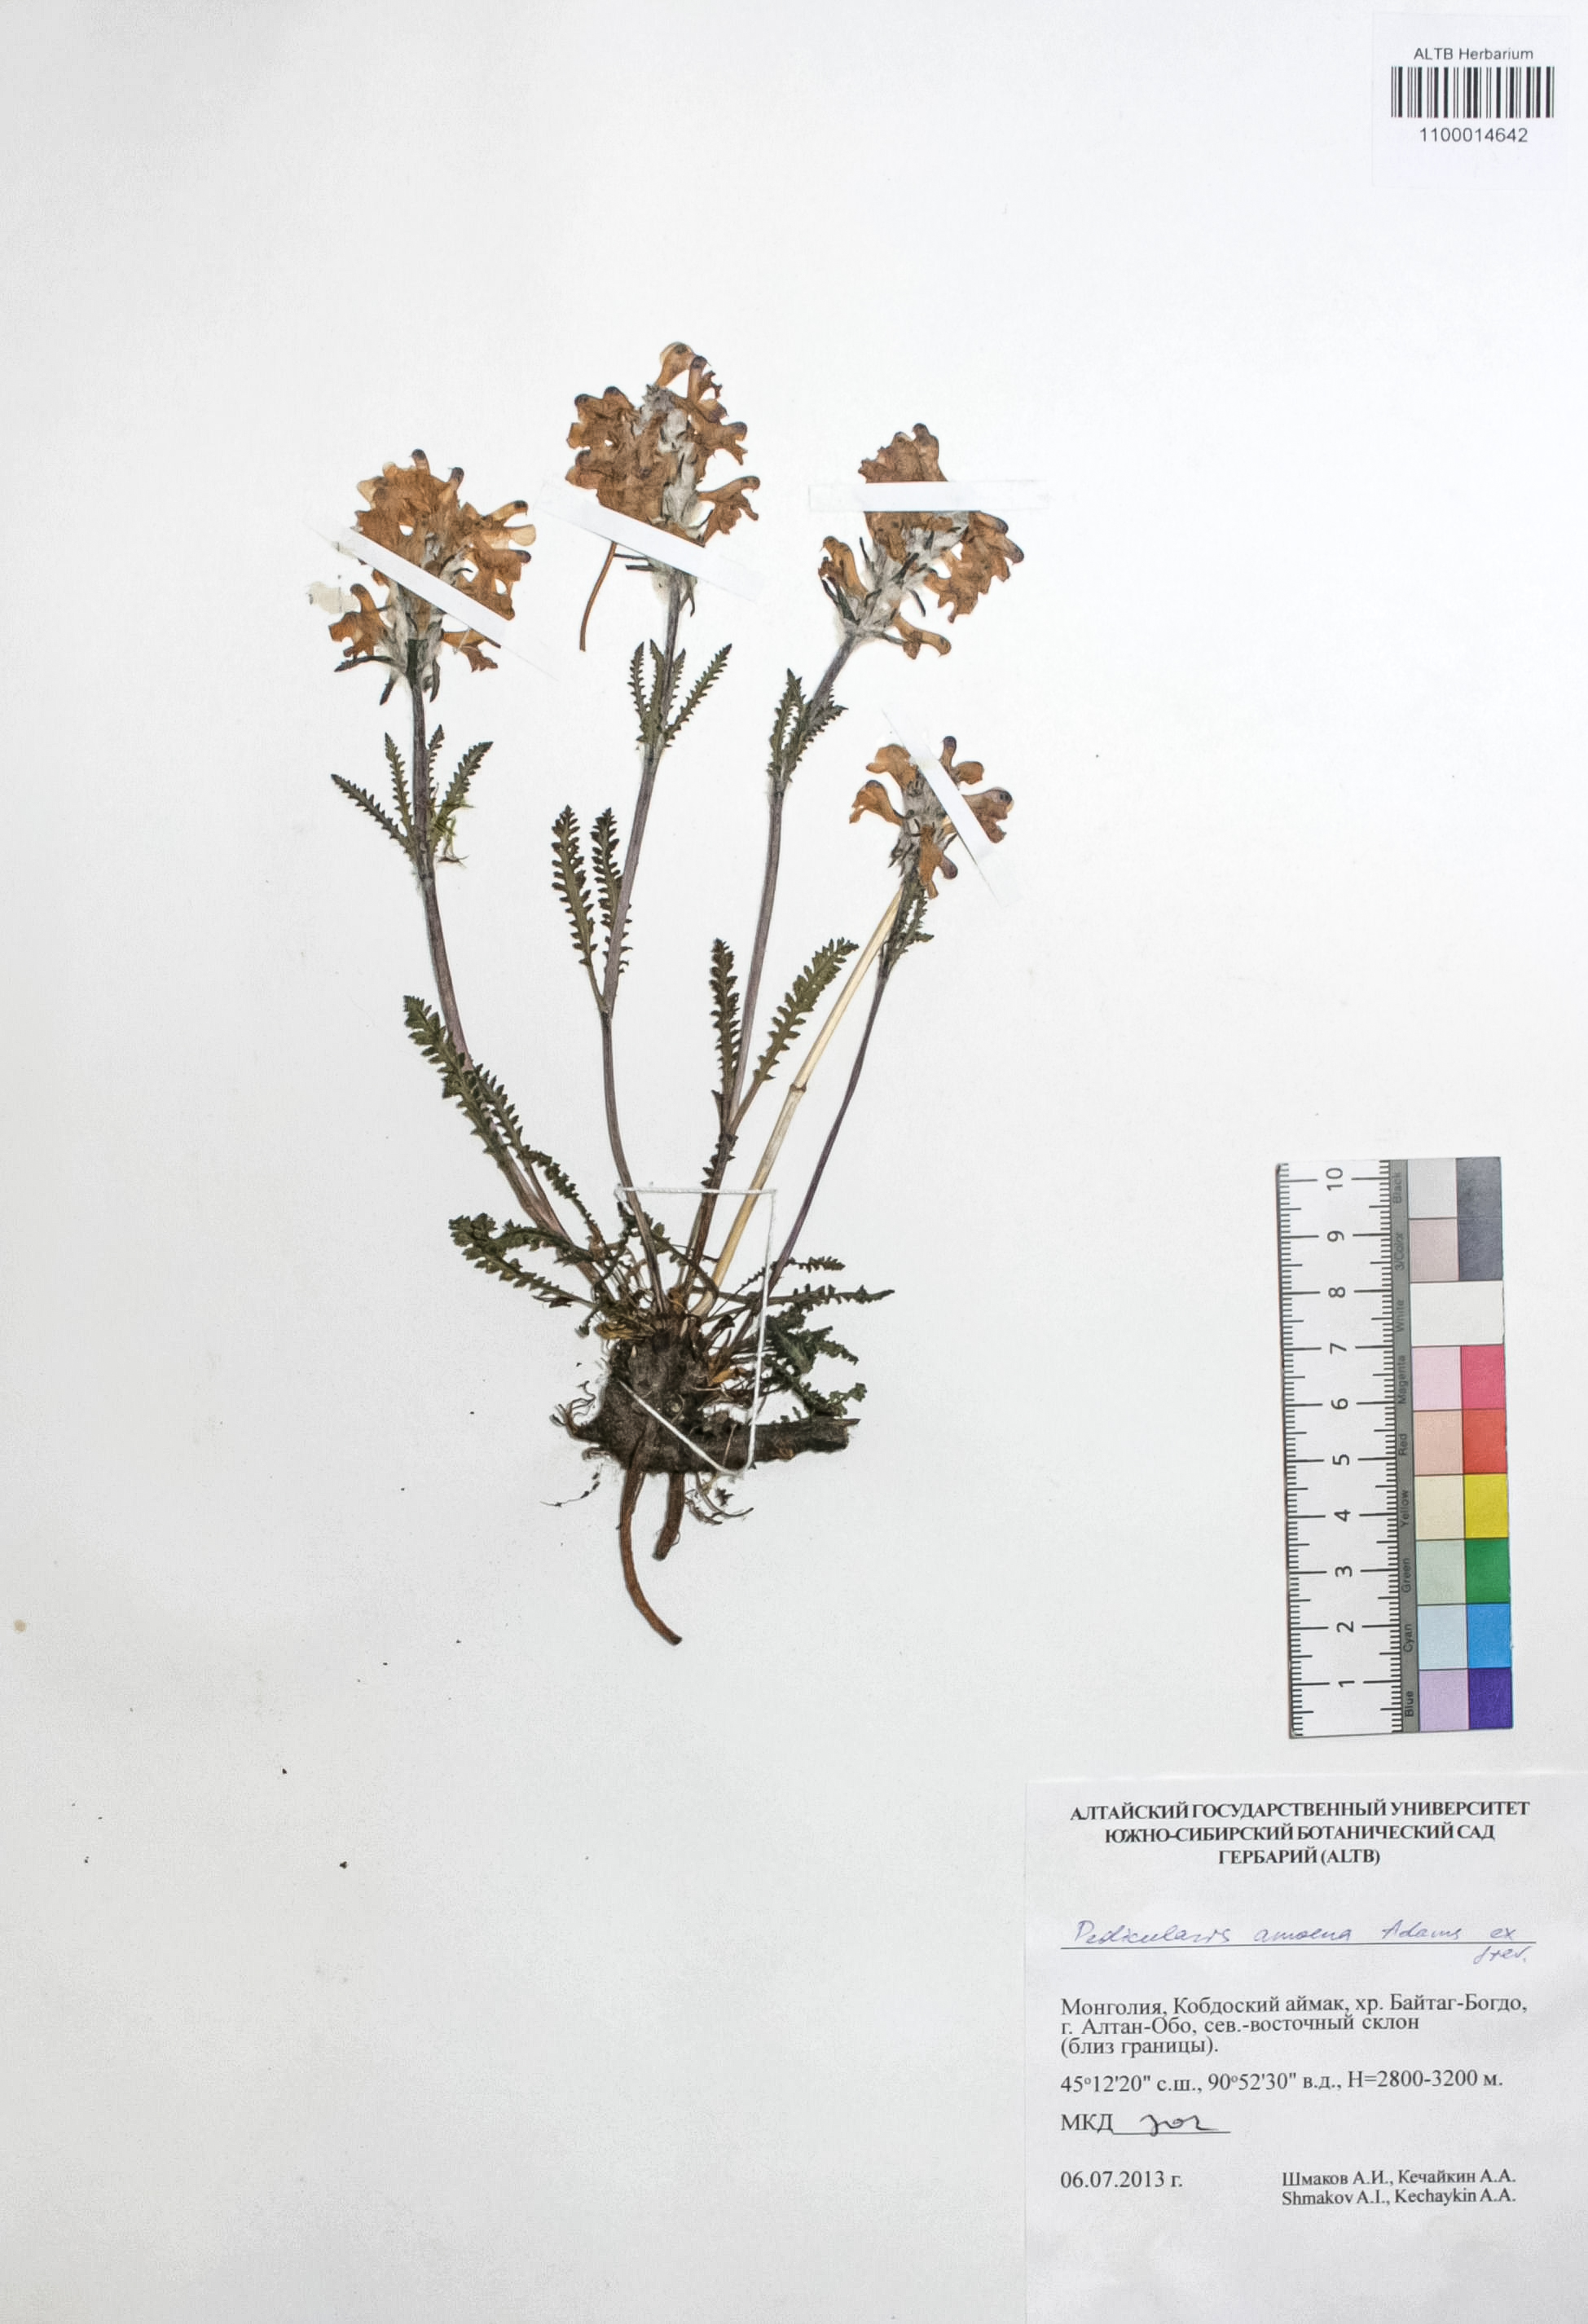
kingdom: Plantae
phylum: Tracheophyta
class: Magnoliopsida
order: Lamiales
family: Orobanchaceae
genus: Pedicularis
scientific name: Pedicularis amoena
